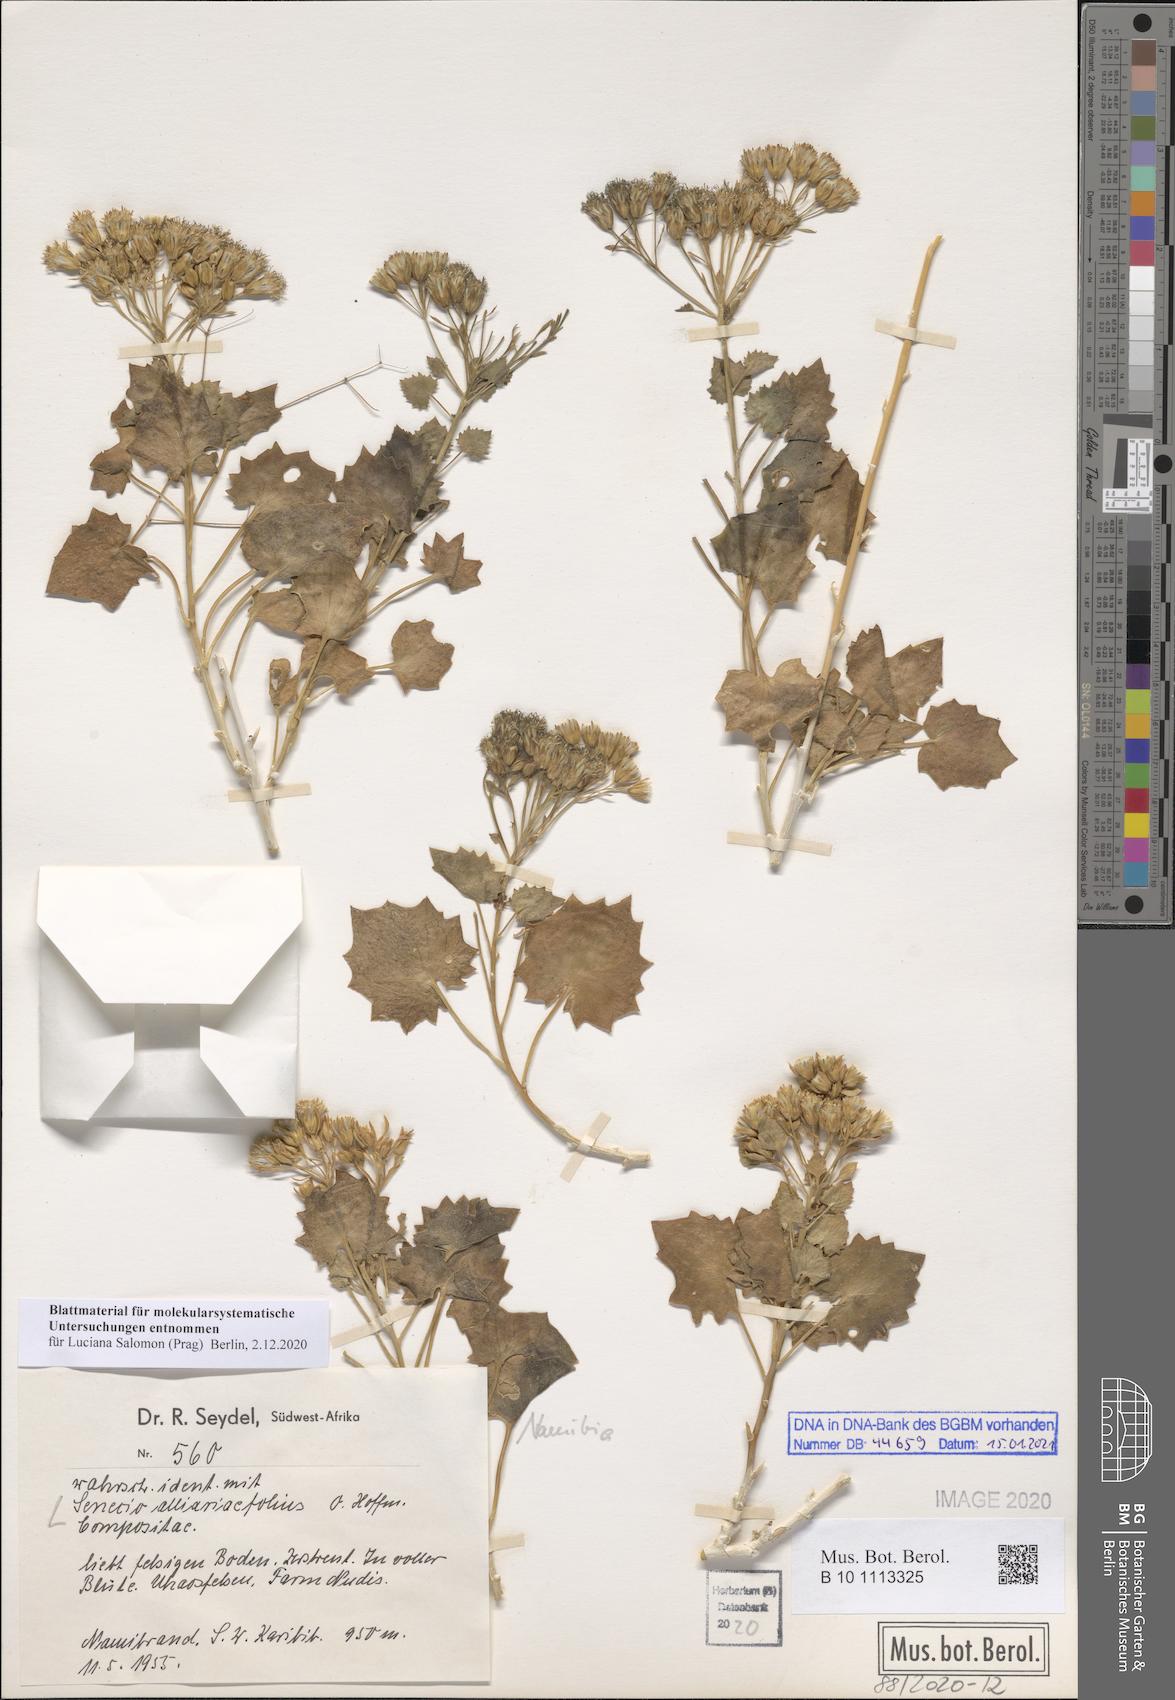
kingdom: Plantae
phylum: Tracheophyta
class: Magnoliopsida
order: Asterales
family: Asteraceae
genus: Dauresia
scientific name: Dauresia alliariifolia
